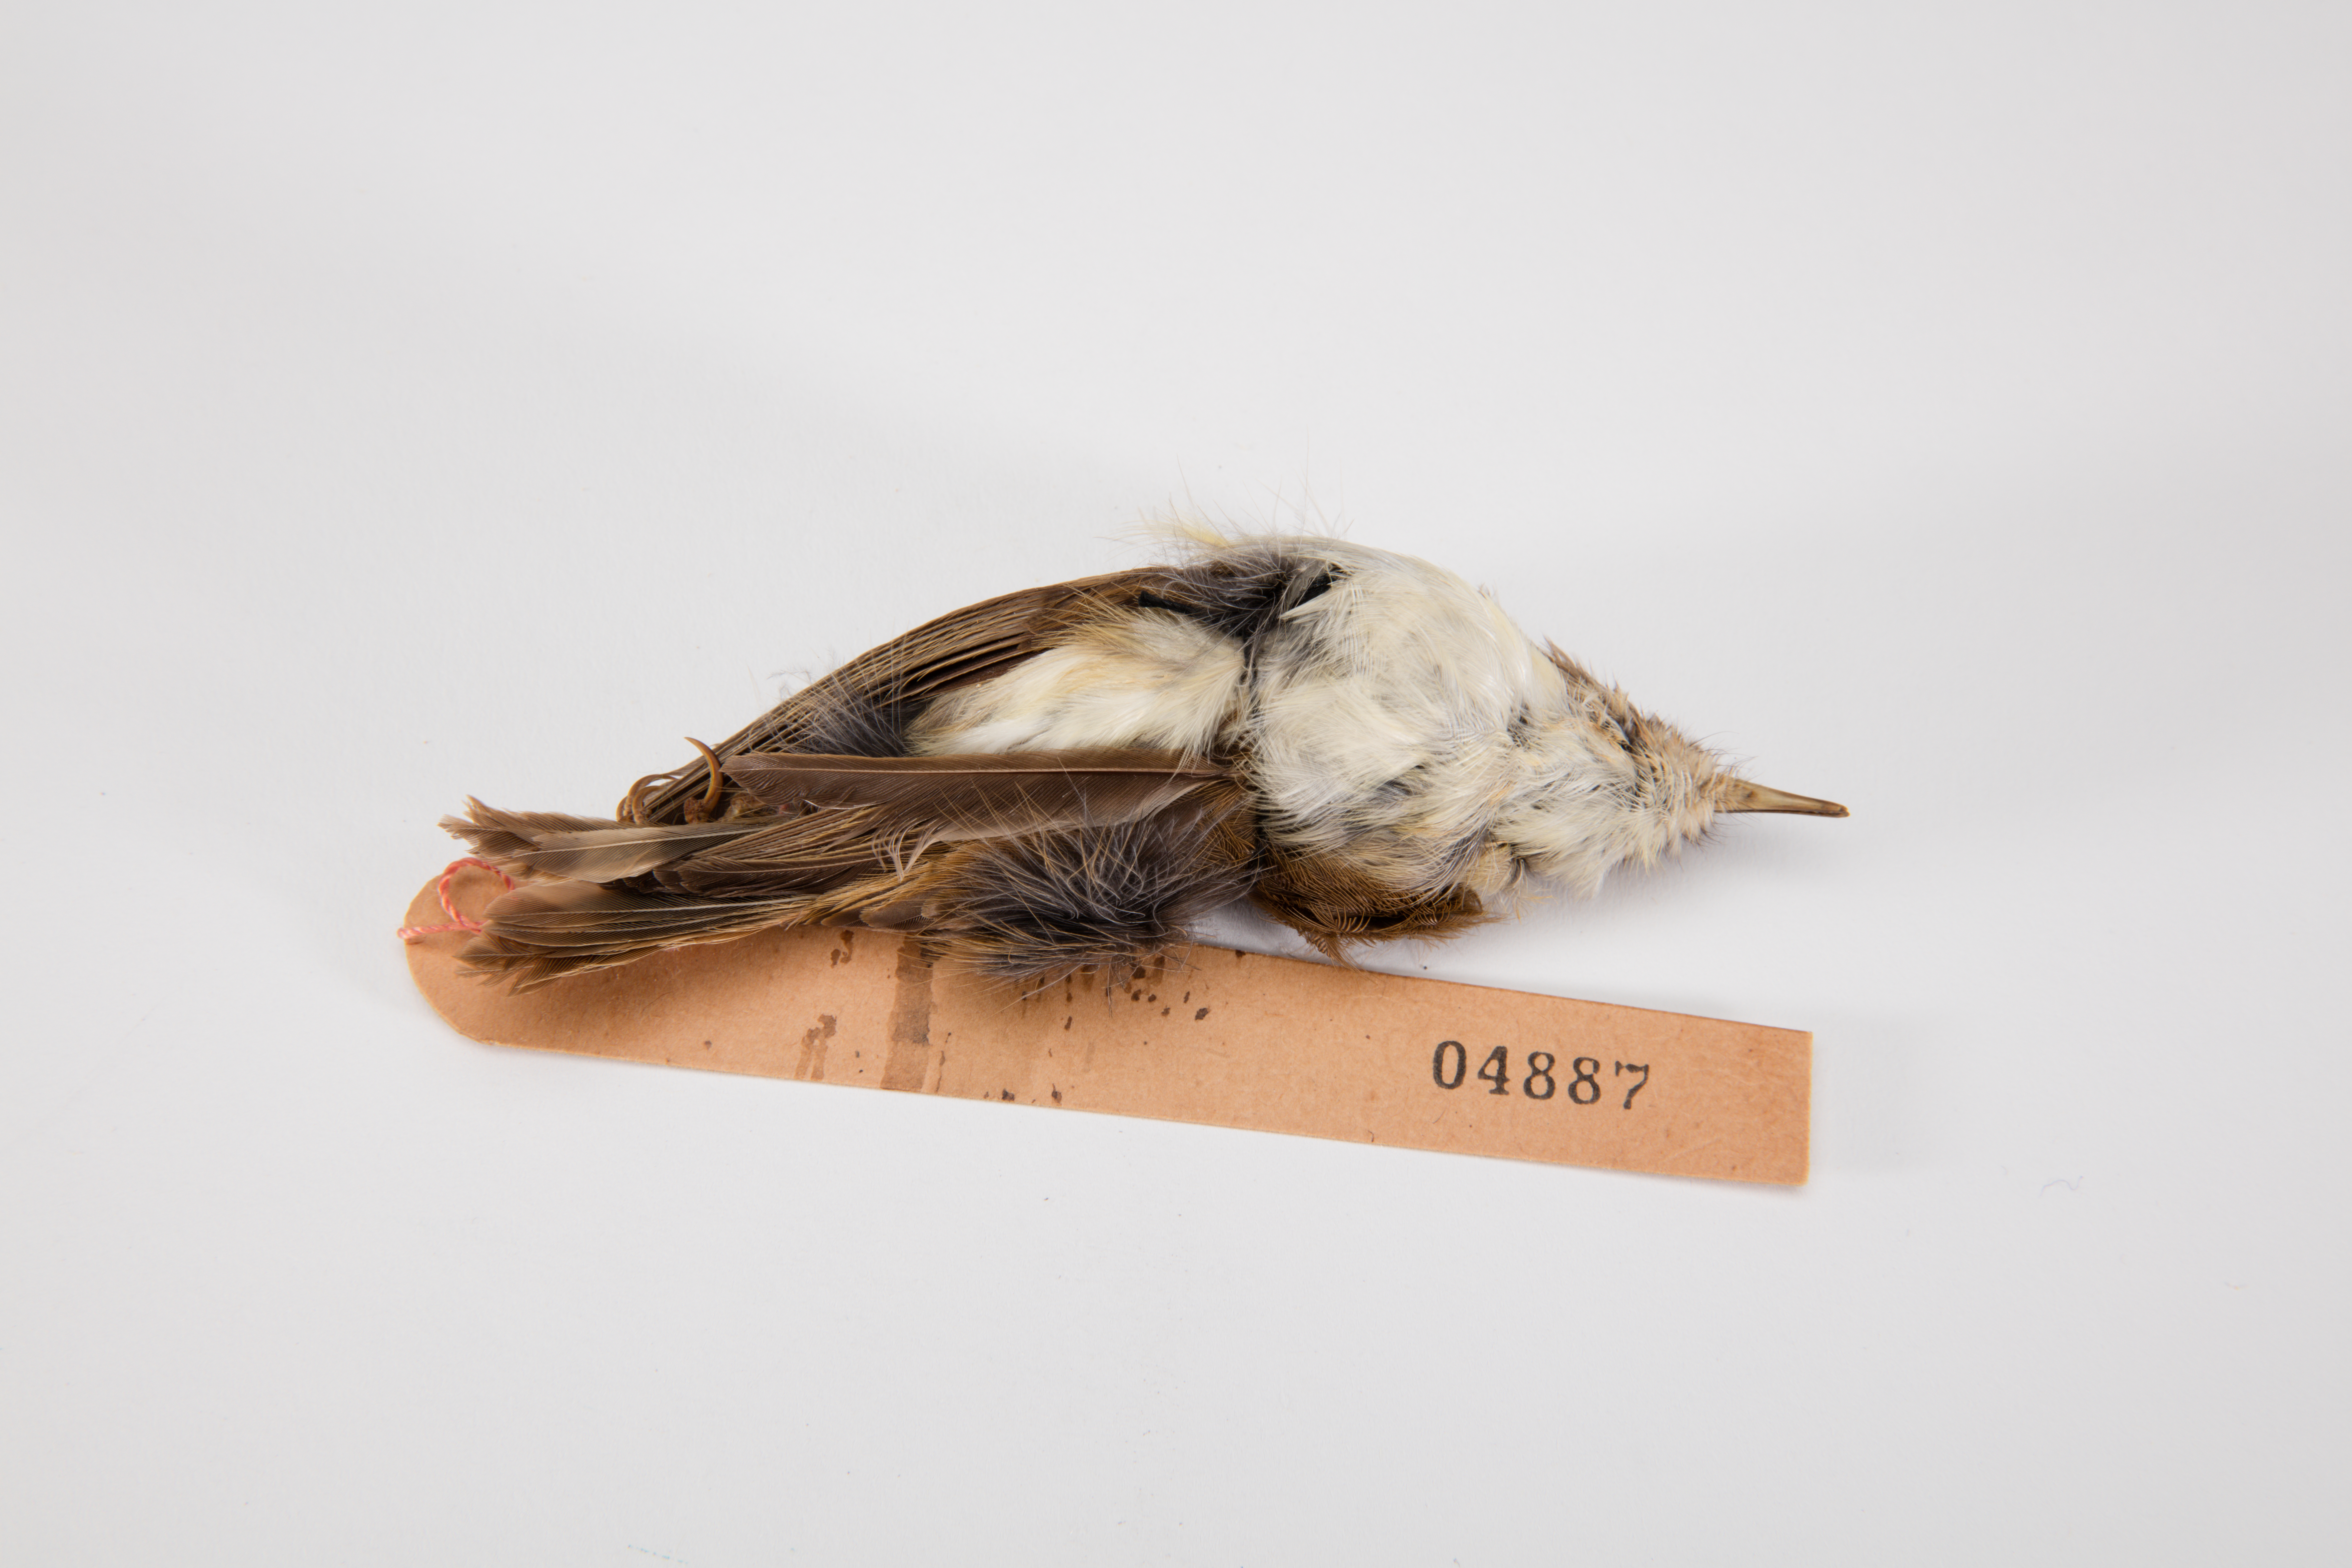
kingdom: Animalia
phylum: Chordata
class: Aves
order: Passeriformes
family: Acanthizidae
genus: Gerygone
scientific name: Gerygone albofrontata
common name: Chatham gerygone
